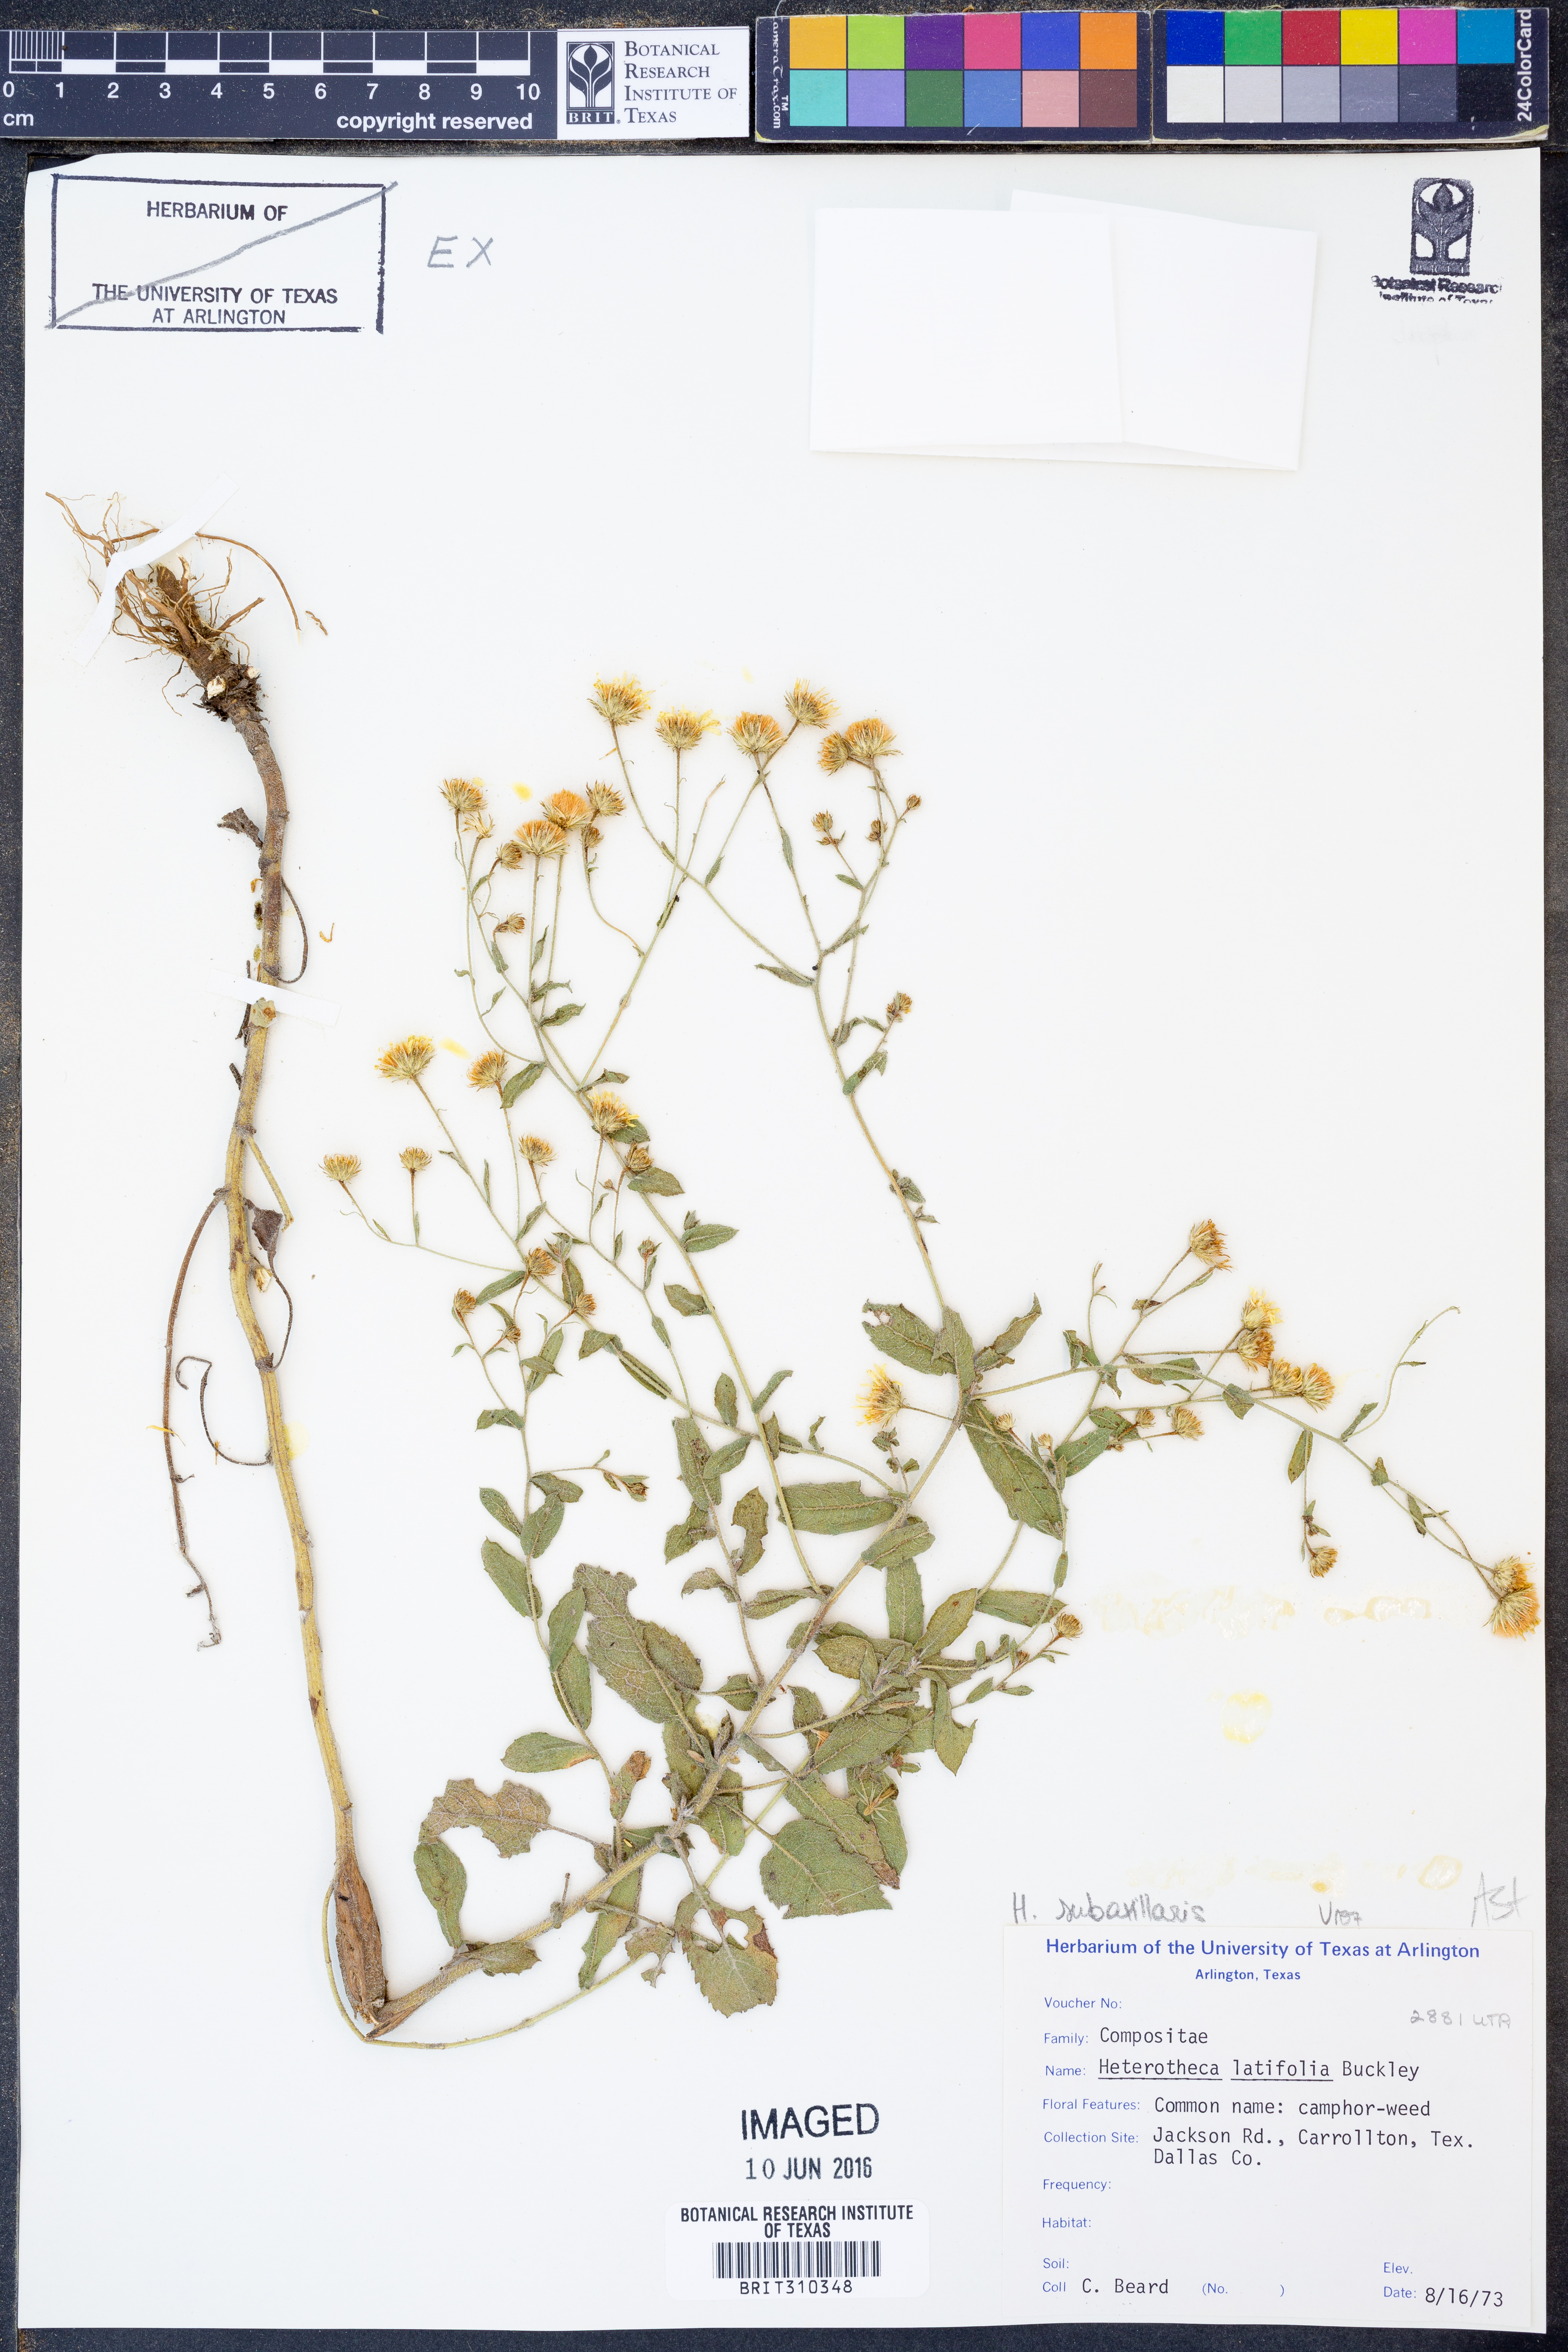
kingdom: Plantae
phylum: Tracheophyta
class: Magnoliopsida
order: Asterales
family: Asteraceae
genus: Heterotheca
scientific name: Heterotheca subaxillaris
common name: Camphorweed
